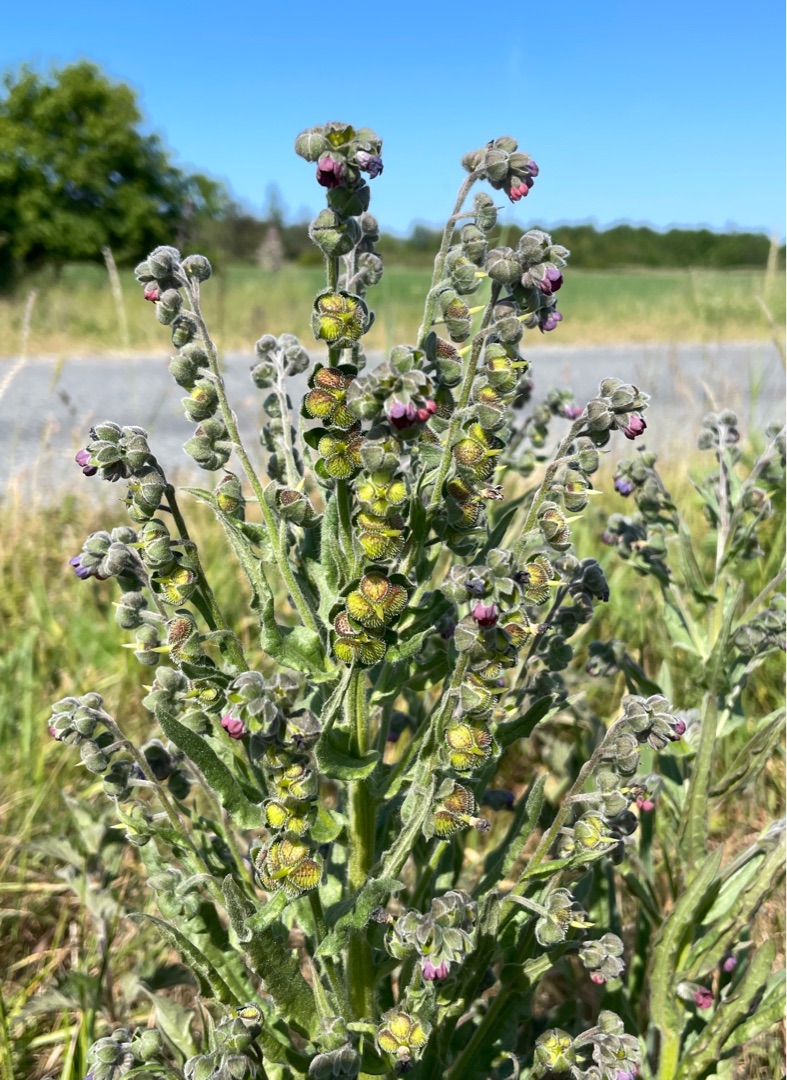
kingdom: Plantae
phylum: Tracheophyta
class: Magnoliopsida
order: Boraginales
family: Boraginaceae
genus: Cynoglossum
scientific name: Cynoglossum officinale
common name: Hundetunge
